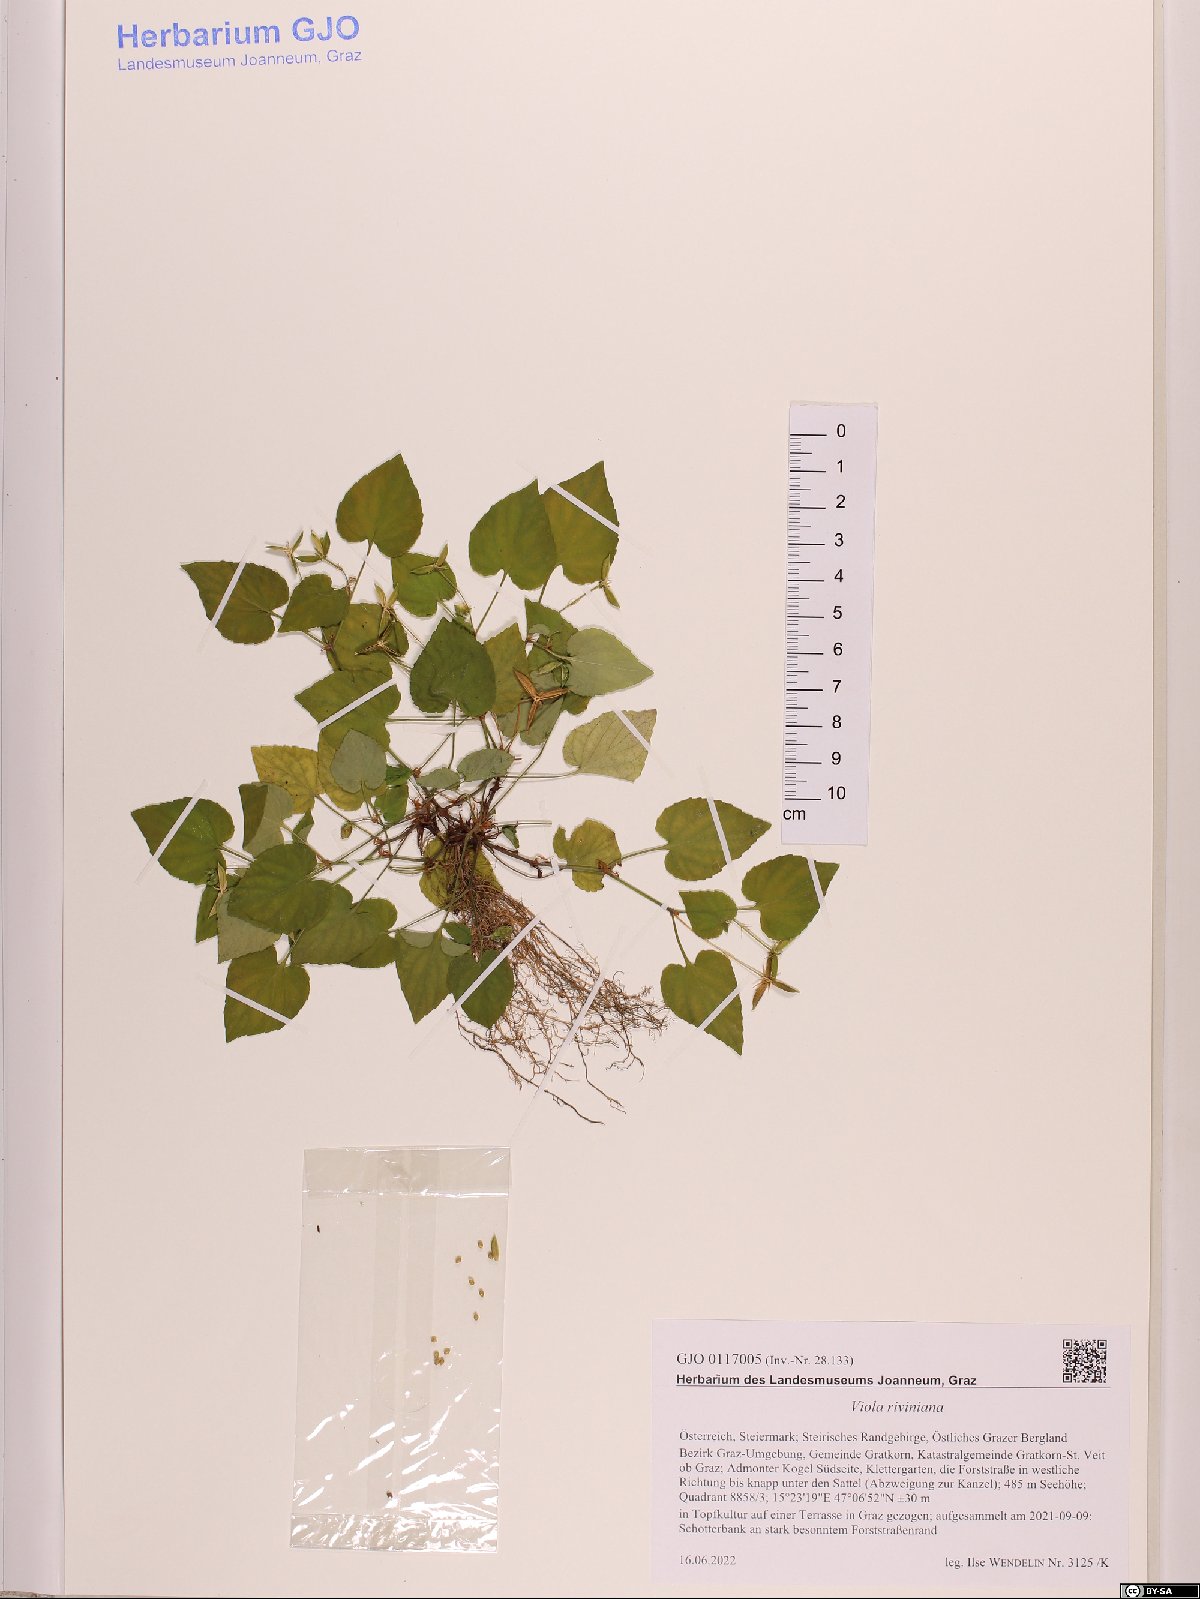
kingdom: Plantae
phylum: Tracheophyta
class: Magnoliopsida
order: Malpighiales
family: Violaceae
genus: Viola
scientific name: Viola riviniana
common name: Common dog-violet
